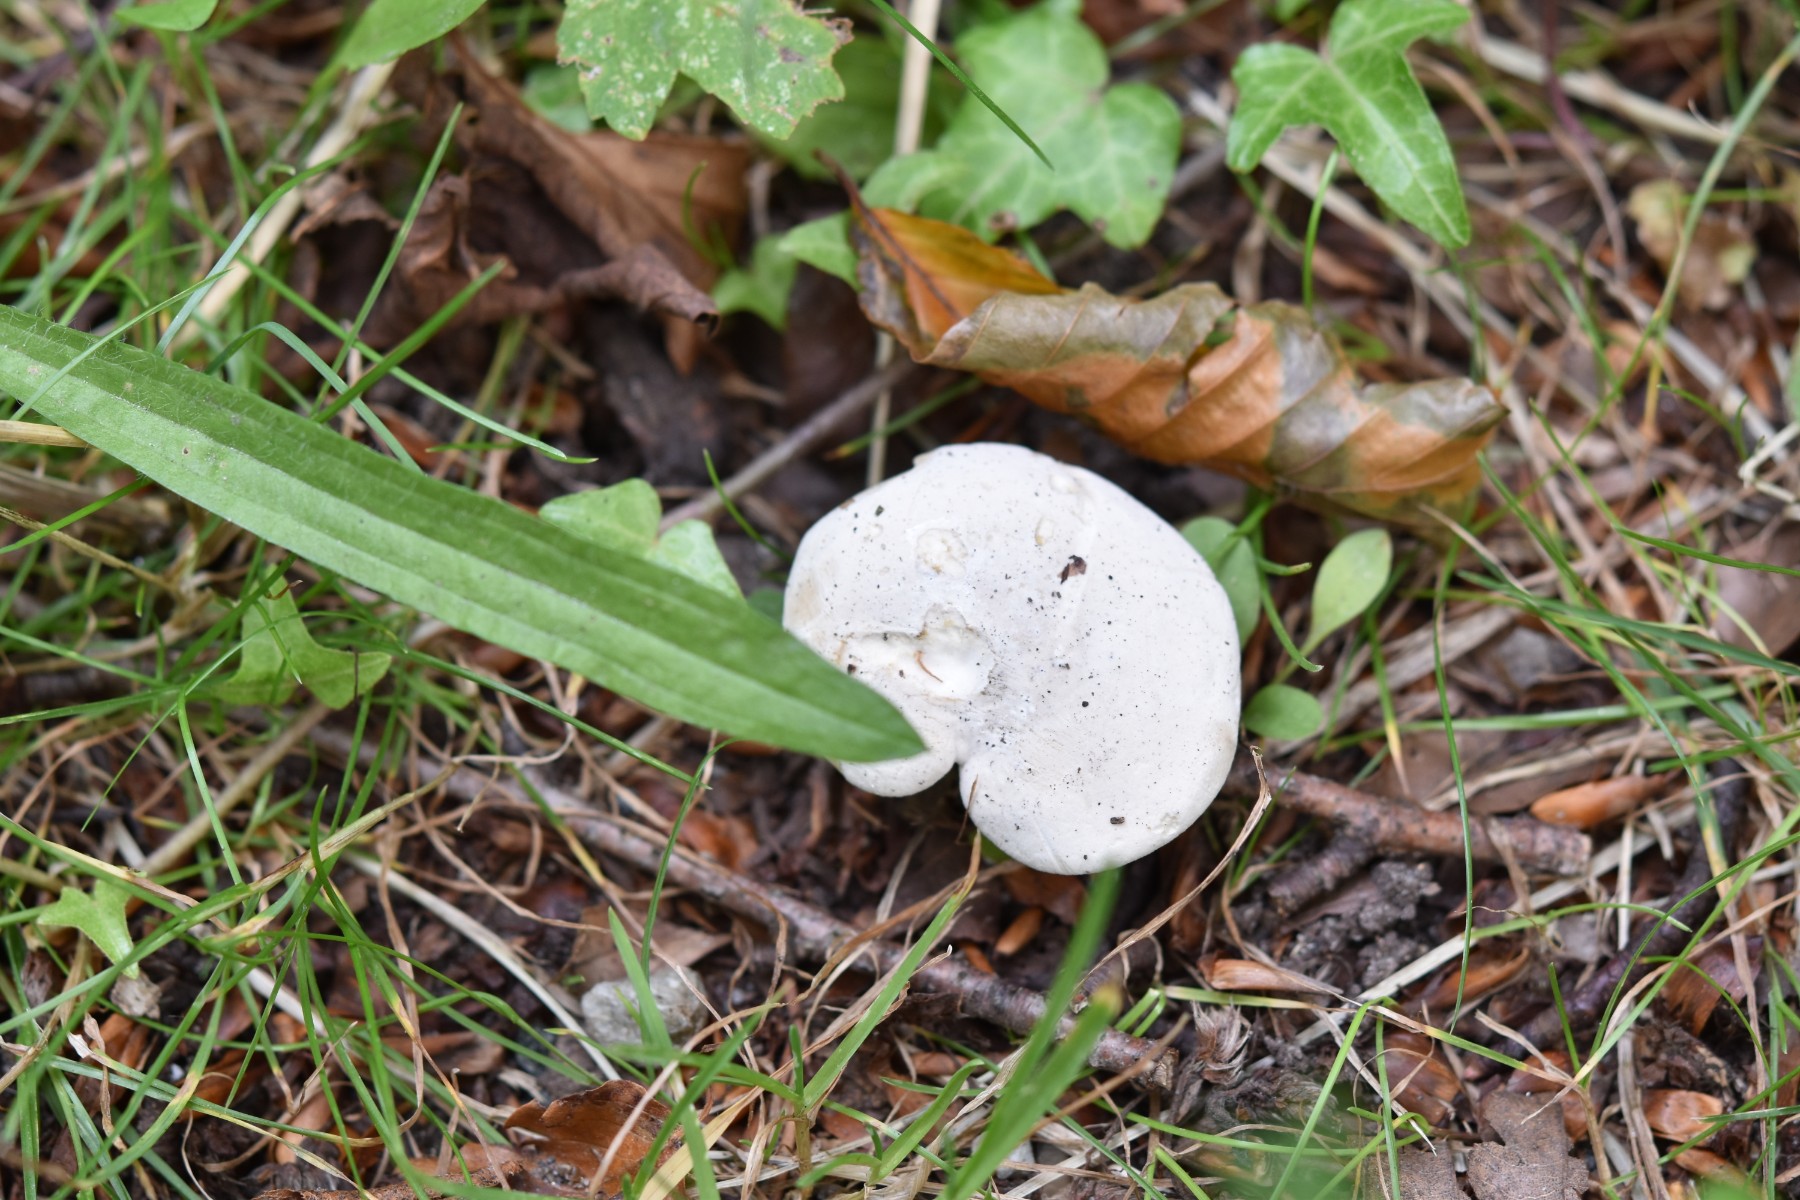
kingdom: Fungi
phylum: Basidiomycota
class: Agaricomycetes
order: Agaricales
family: Entolomataceae
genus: Clitopilus
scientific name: Clitopilus prunulus
